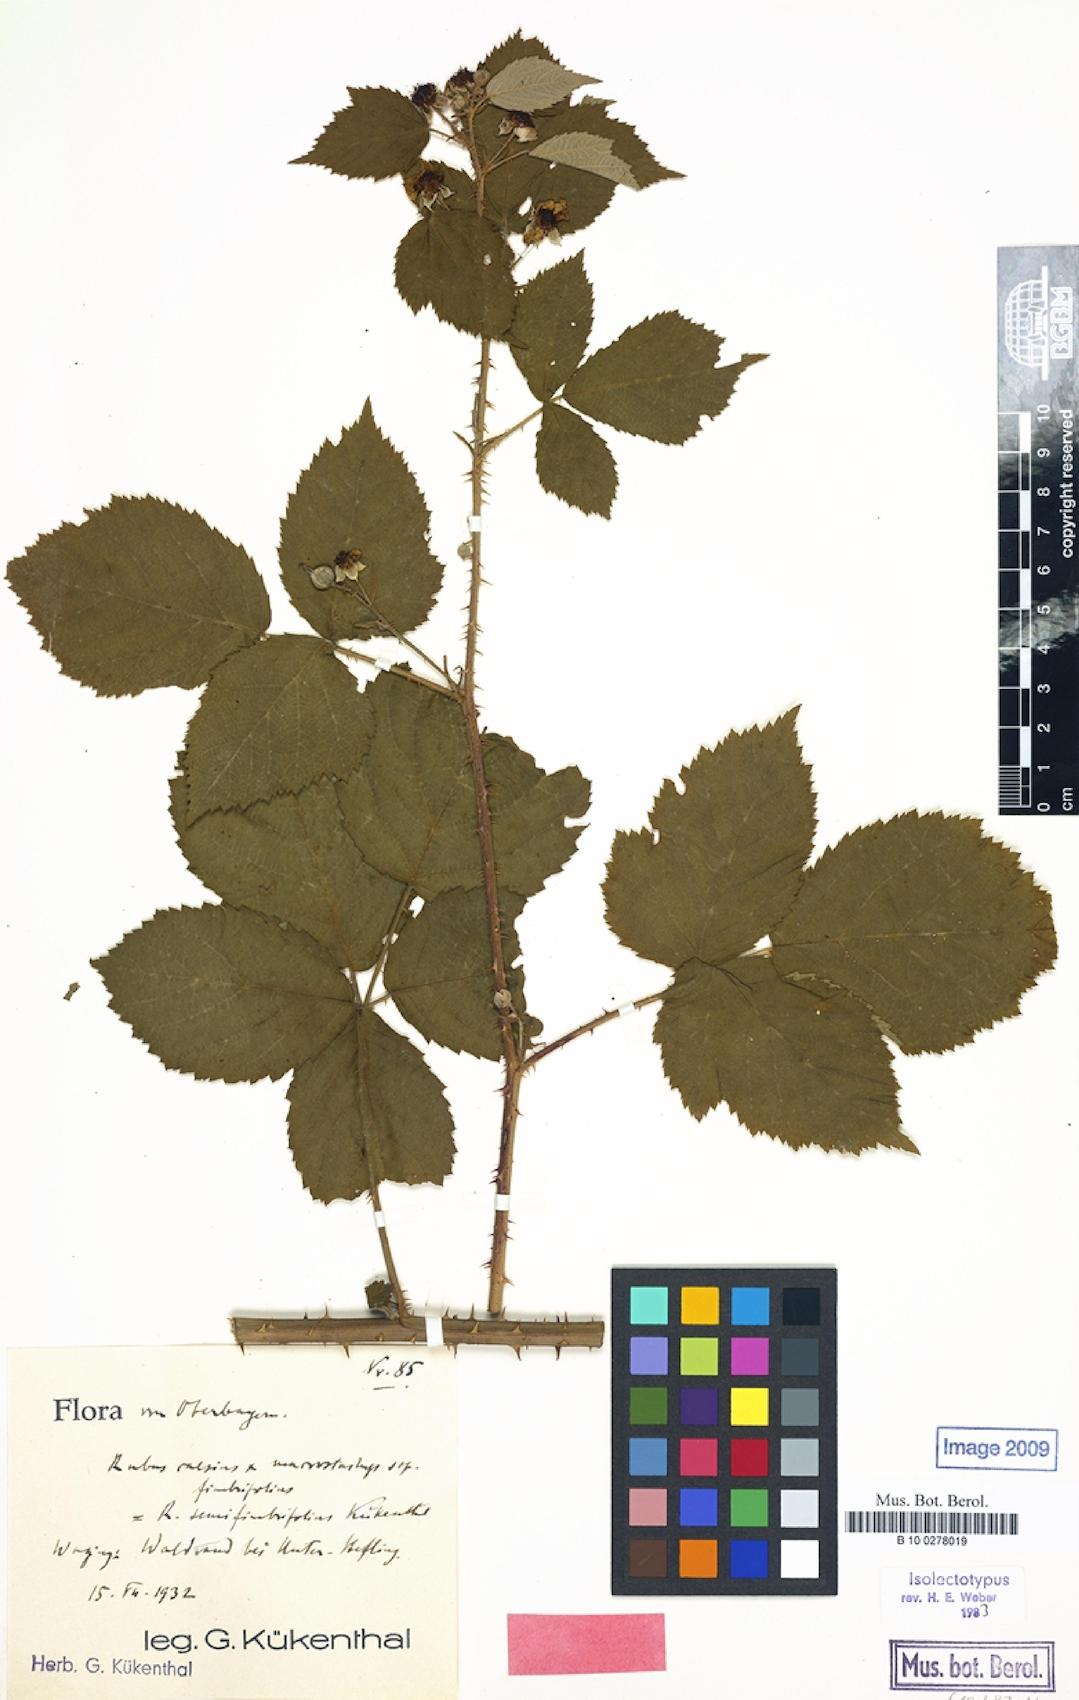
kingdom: Plantae
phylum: Tracheophyta
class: Magnoliopsida
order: Rosales
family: Rosaceae
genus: Rubus
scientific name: Rubus semifimbrifolius
